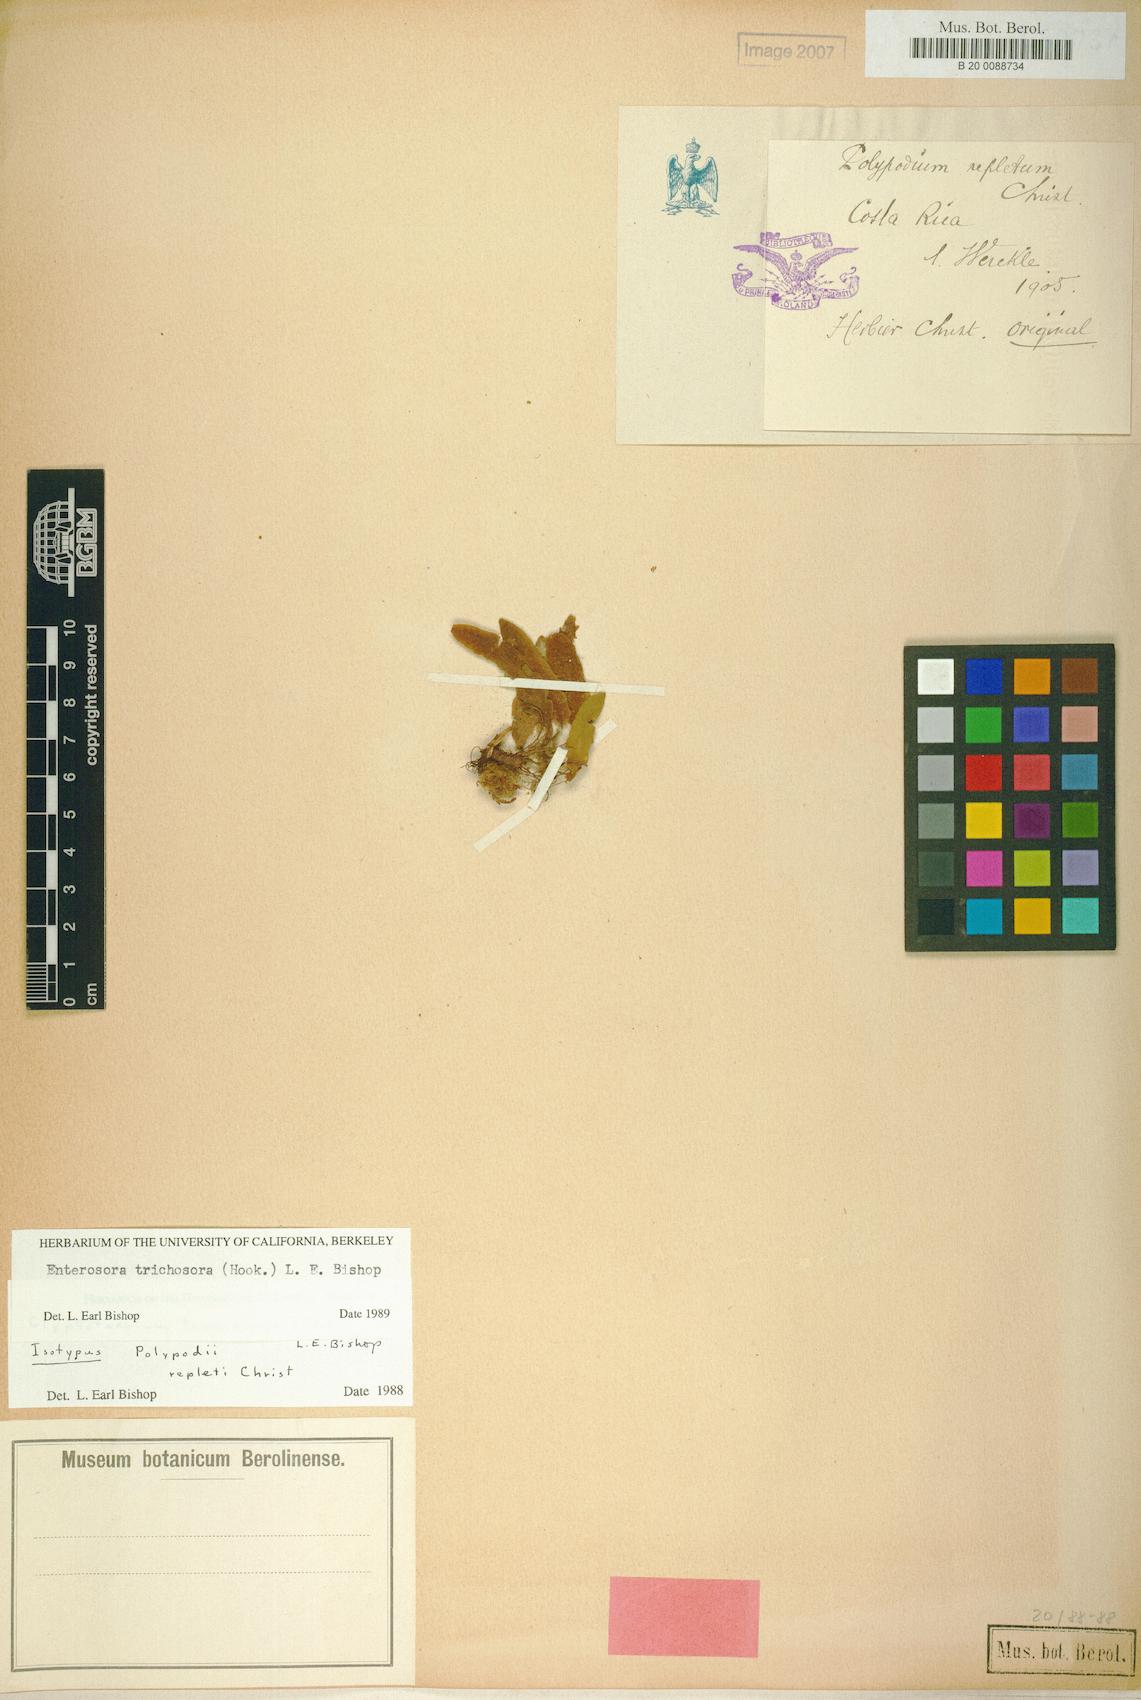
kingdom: Plantae
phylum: Tracheophyta
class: Polypodiopsida
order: Polypodiales
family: Polypodiaceae
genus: Enterosora
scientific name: Enterosora trichosora
